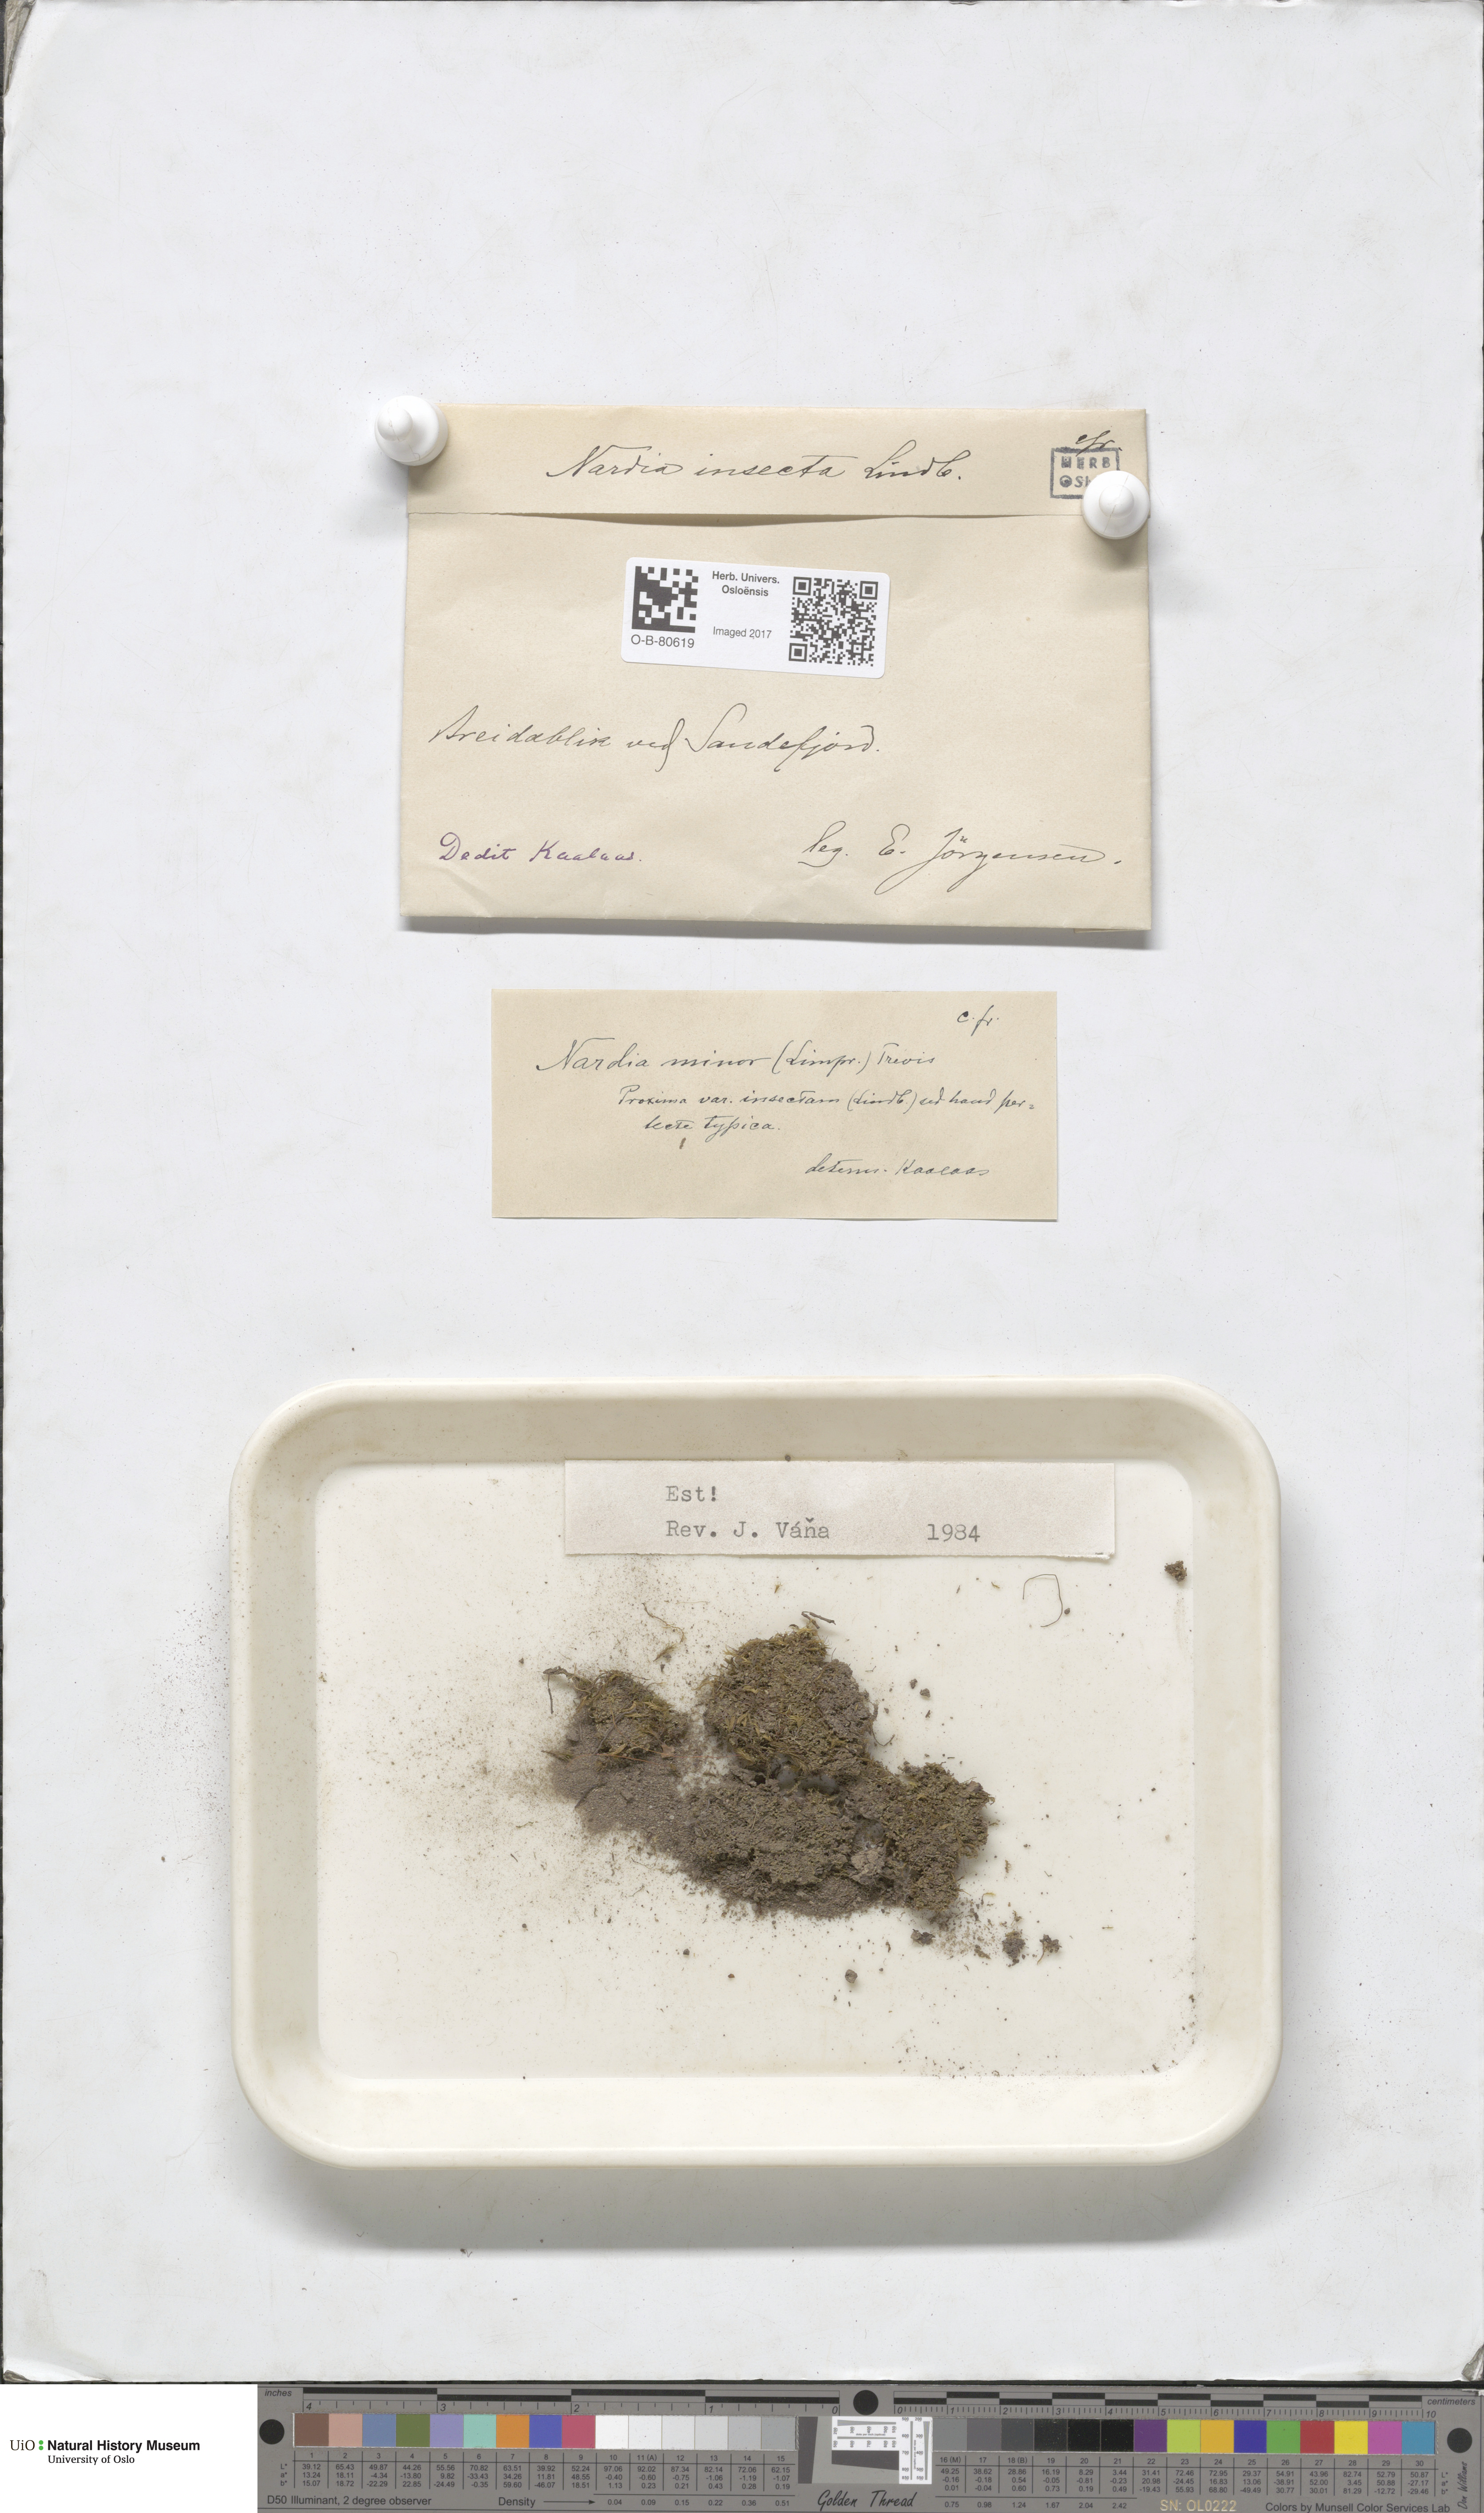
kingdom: Plantae
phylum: Marchantiophyta
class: Jungermanniopsida
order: Jungermanniales
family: Gymnomitriaceae
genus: Nardia
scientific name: Nardia insecta
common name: Two-lobed flapwort
